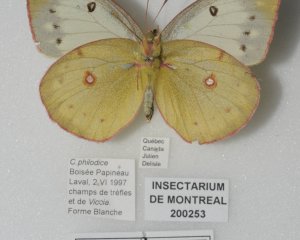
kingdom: Animalia
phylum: Arthropoda
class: Insecta
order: Lepidoptera
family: Pieridae
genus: Colias
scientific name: Colias philodice
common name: Clouded Sulphur
